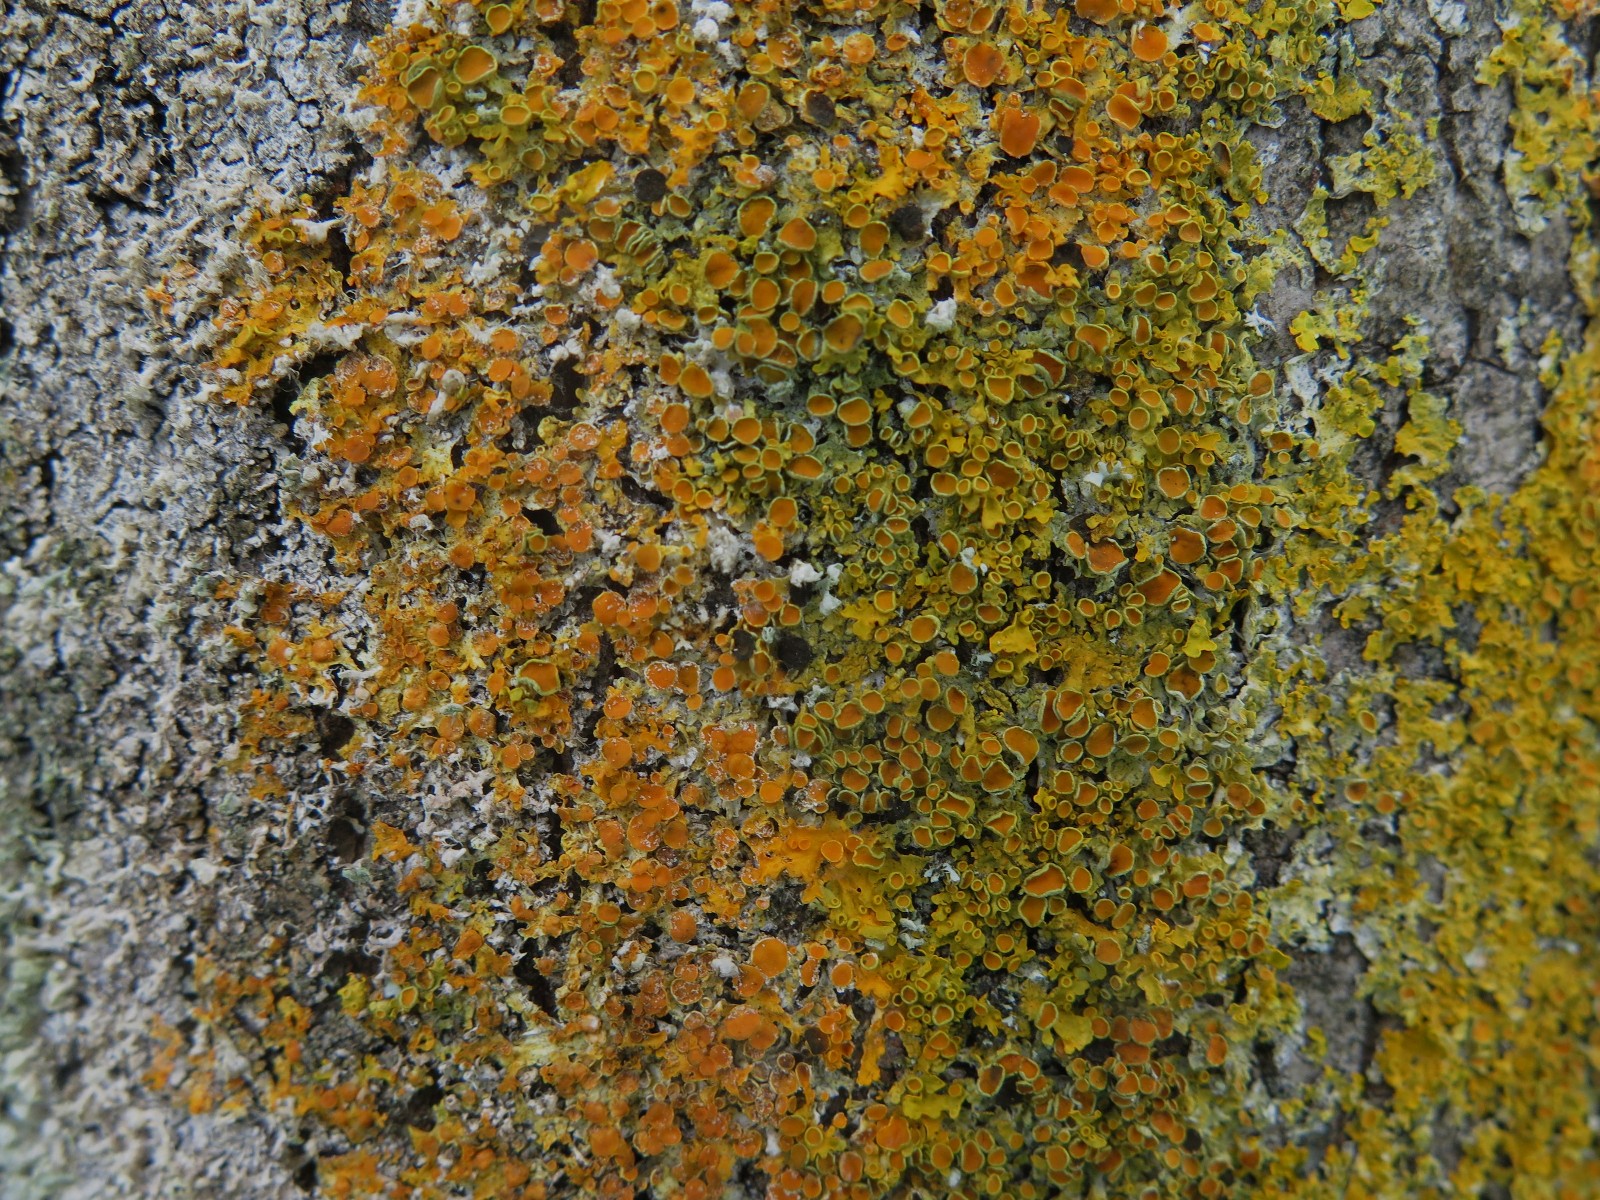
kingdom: Fungi
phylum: Ascomycota
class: Lecanoromycetes
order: Teloschistales
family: Teloschistaceae
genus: Xanthoria
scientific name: Xanthoria parietina
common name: almindelig væggelav
